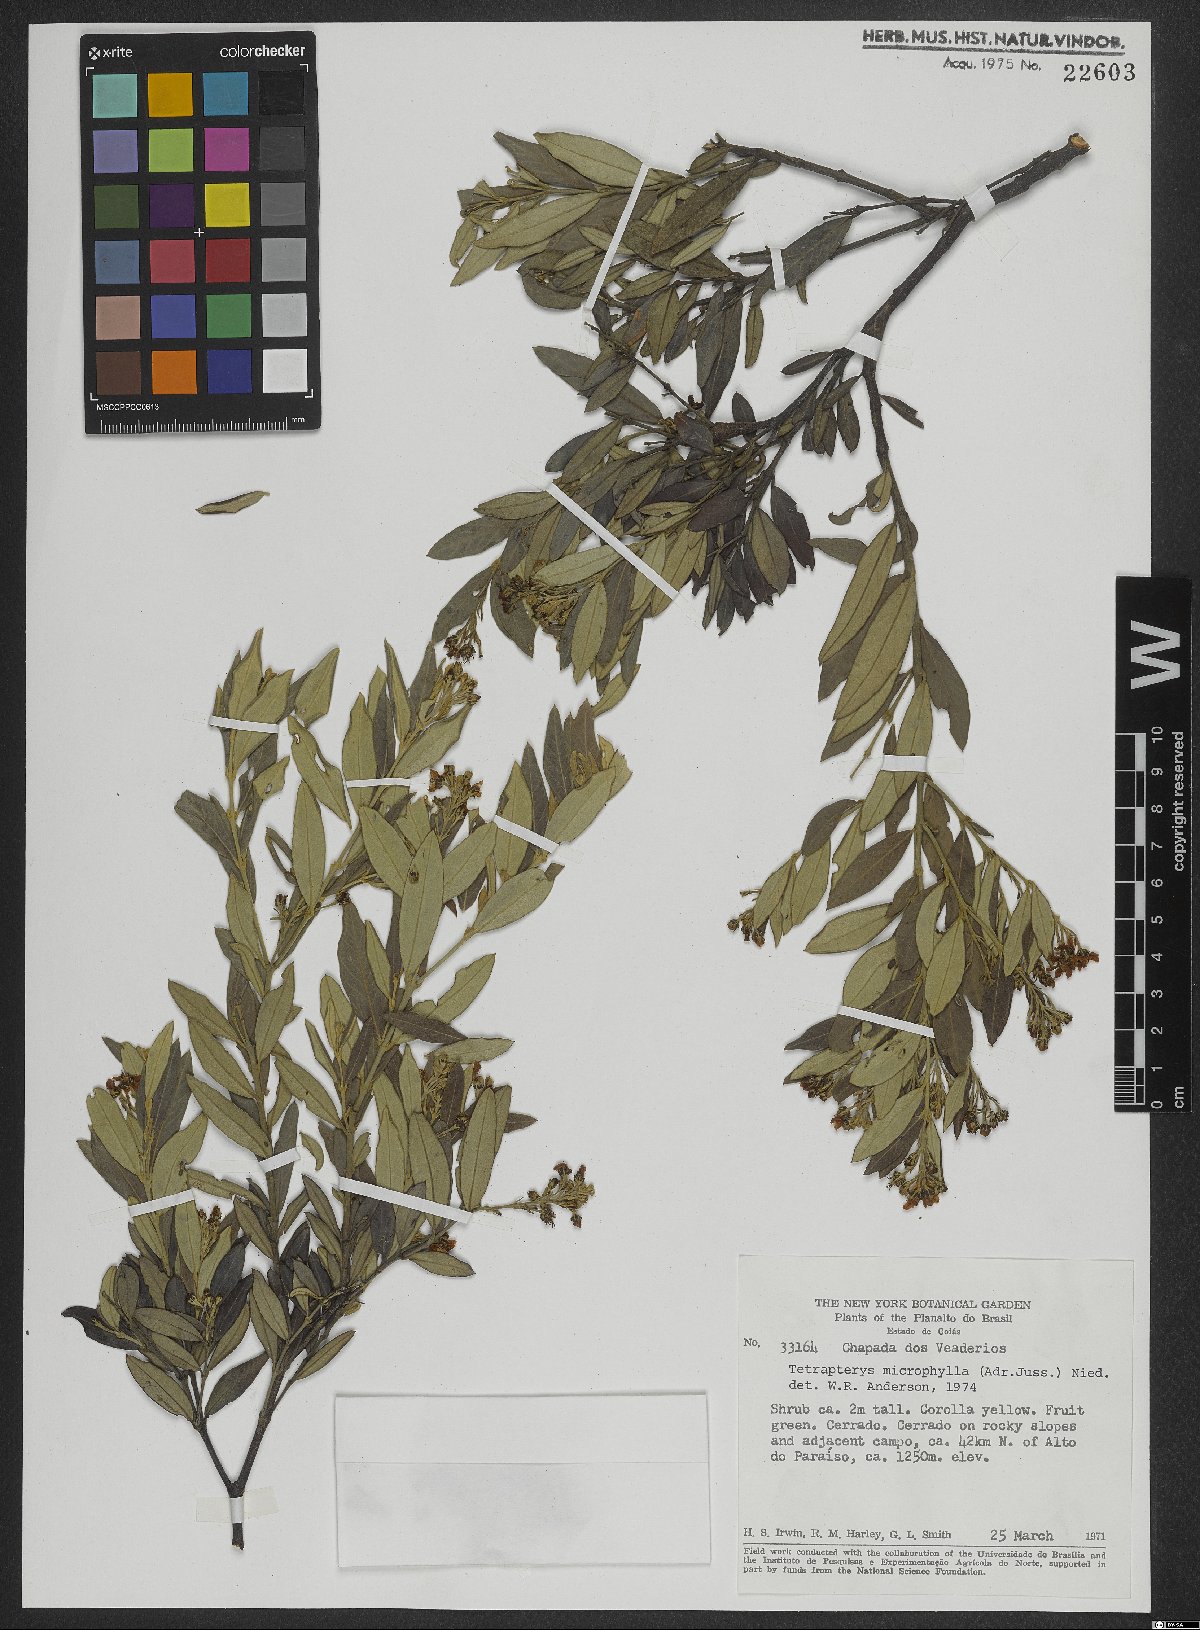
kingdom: Plantae
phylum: Tracheophyta
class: Magnoliopsida
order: Malpighiales
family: Malpighiaceae
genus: Glicophyllum
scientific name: Glicophyllum microphyllum
